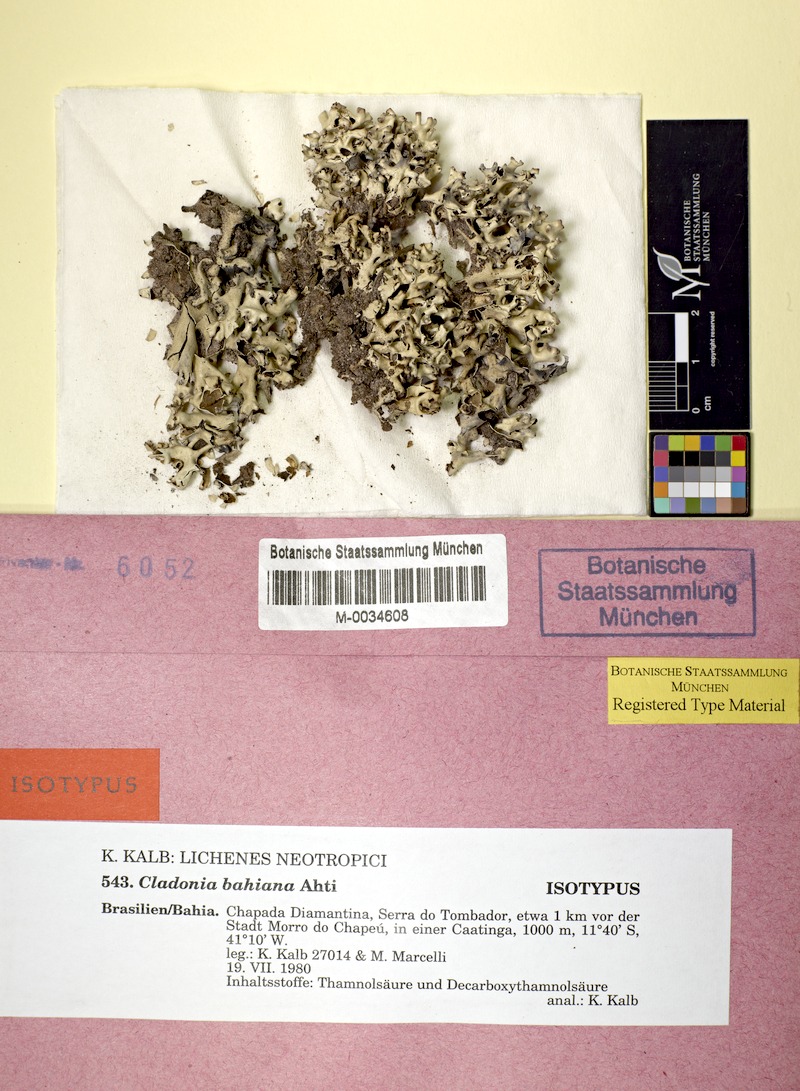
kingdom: Fungi
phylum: Ascomycota
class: Lecanoromycetes
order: Lecanorales
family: Cladoniaceae
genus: Cladonia
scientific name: Cladonia bahiana
